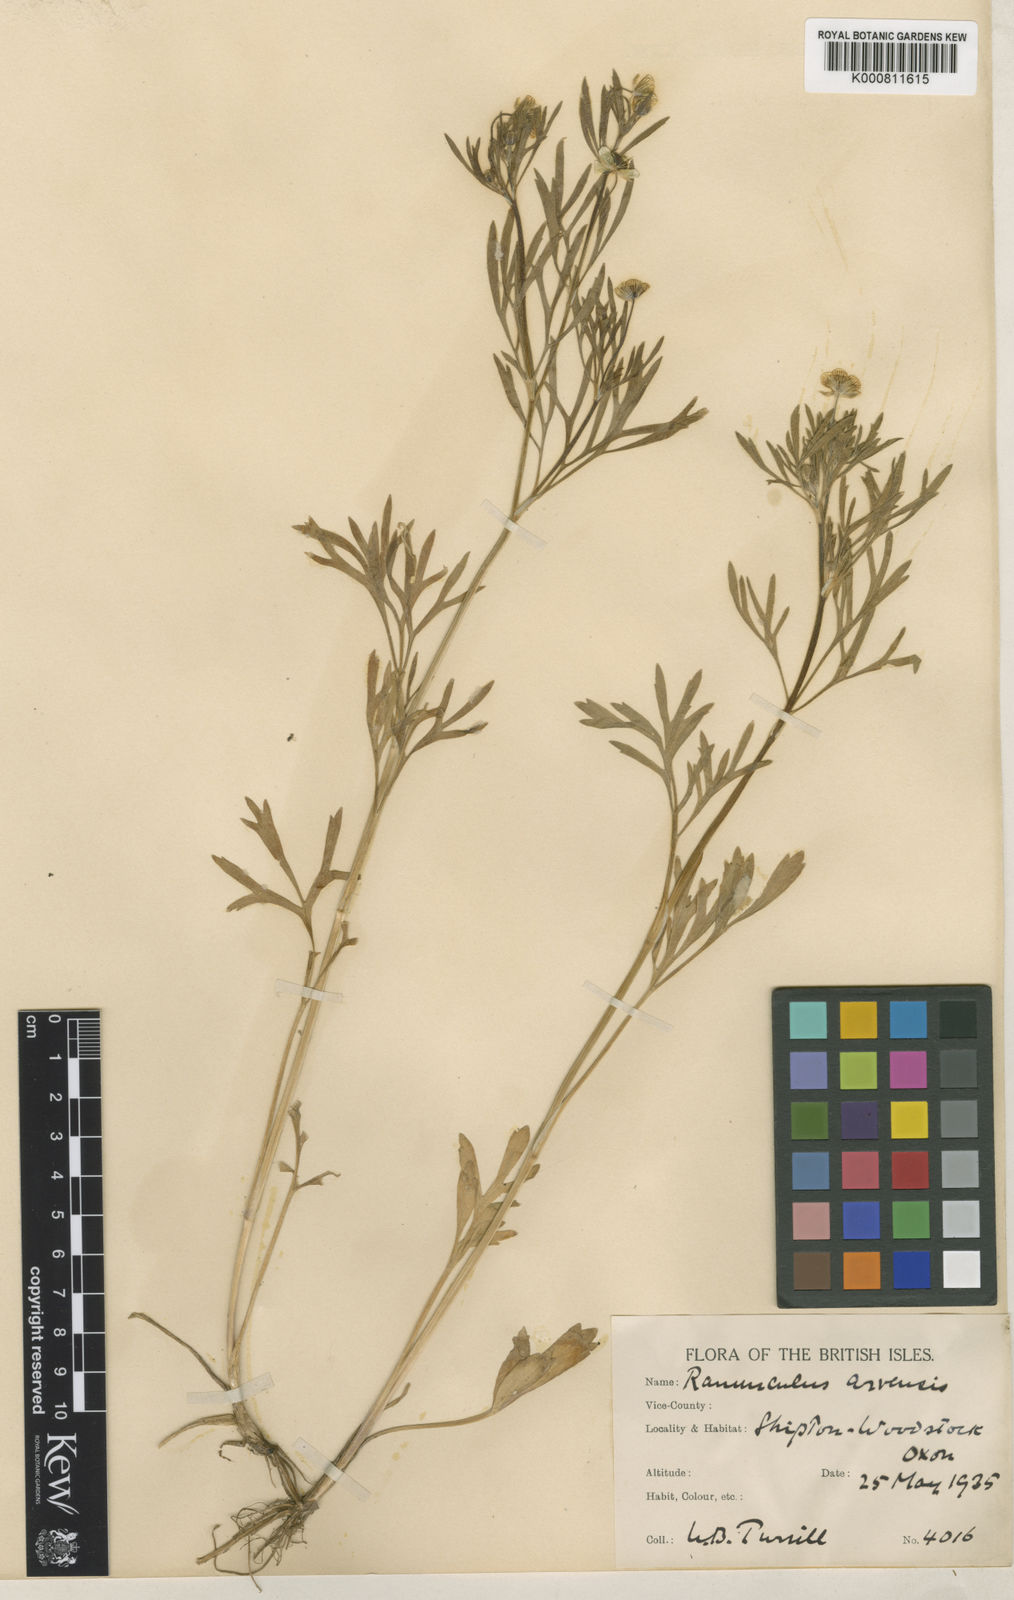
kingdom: Plantae
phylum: Tracheophyta
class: Magnoliopsida
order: Ranunculales
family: Ranunculaceae
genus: Ranunculus
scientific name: Ranunculus arvensis
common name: Corn buttercup
